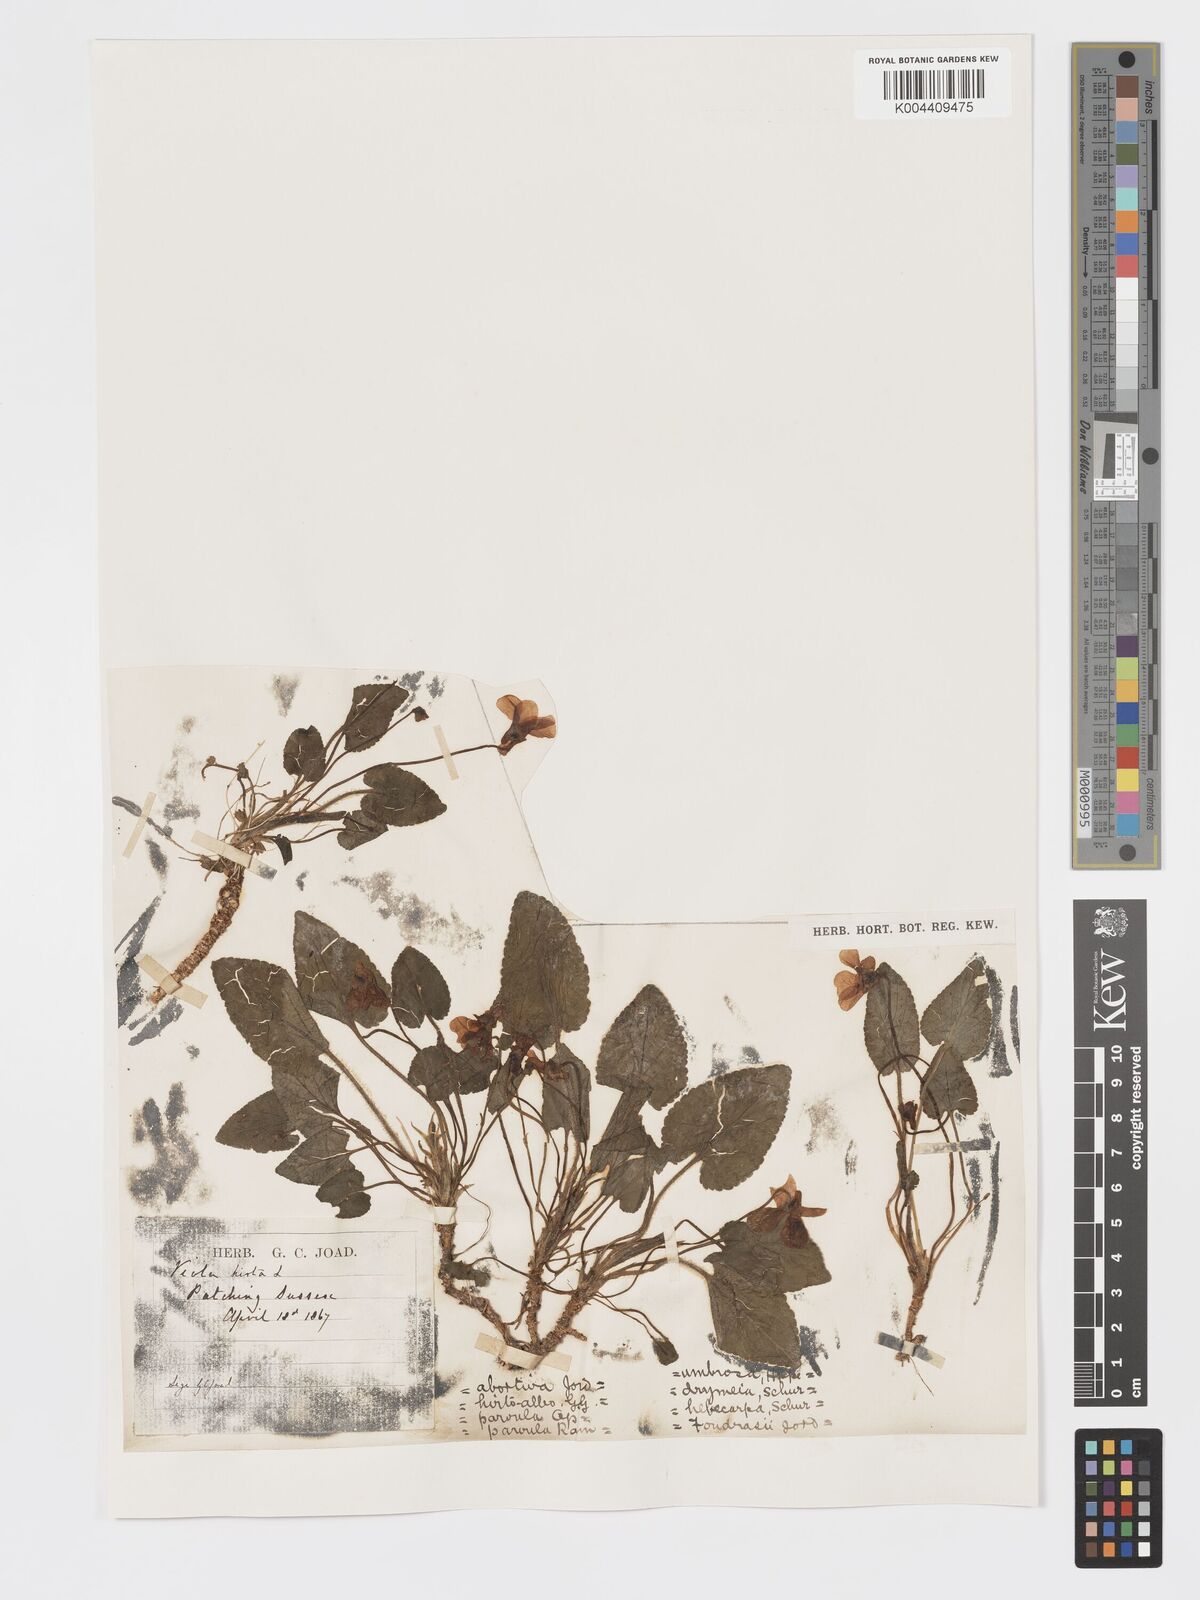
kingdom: Plantae
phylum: Tracheophyta
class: Magnoliopsida
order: Malpighiales
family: Violaceae
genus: Viola
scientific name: Viola
